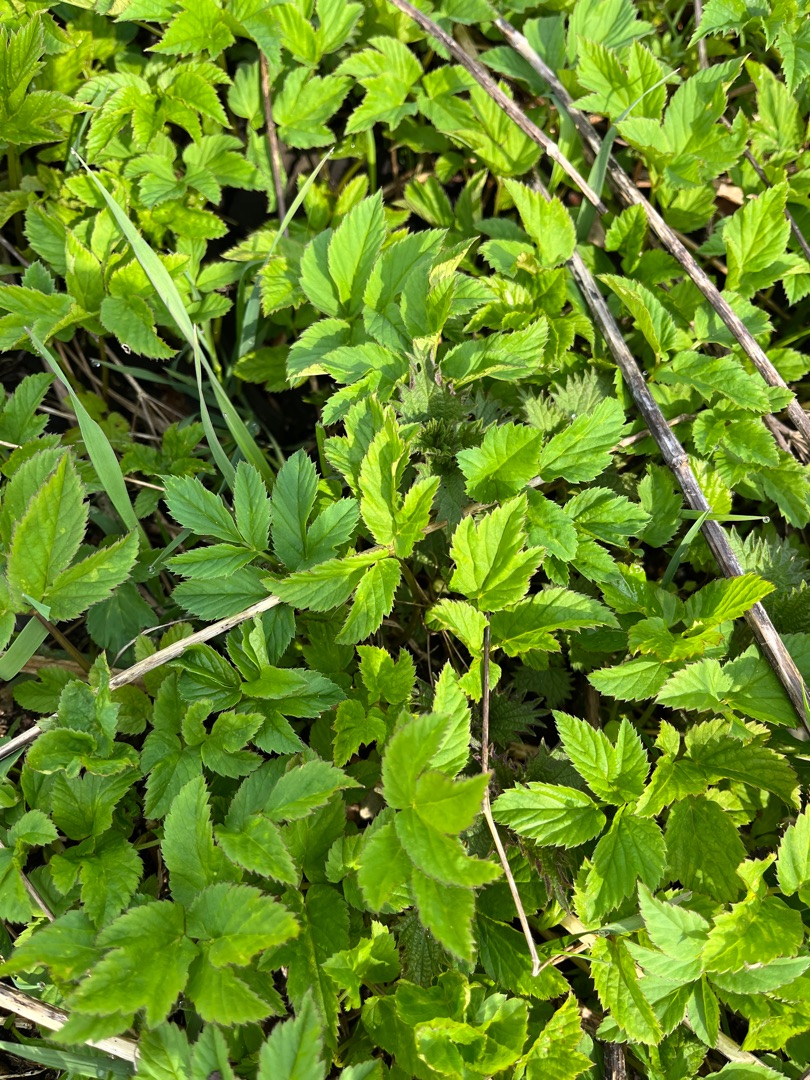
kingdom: Plantae
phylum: Tracheophyta
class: Magnoliopsida
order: Apiales
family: Apiaceae
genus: Aegopodium
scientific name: Aegopodium podagraria
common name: Skvalderkål
